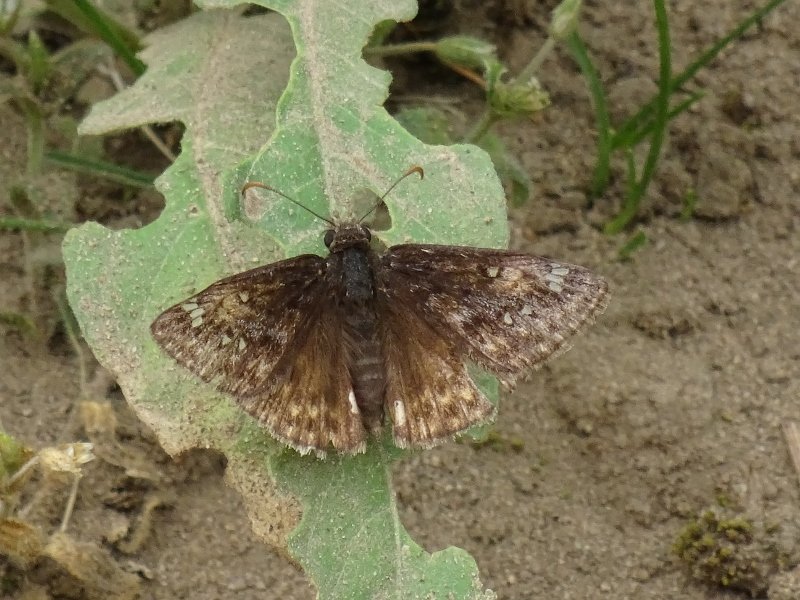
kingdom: Animalia
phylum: Arthropoda
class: Insecta
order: Lepidoptera
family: Hesperiidae
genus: Gesta
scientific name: Gesta
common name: Juvenal's Duskywing
